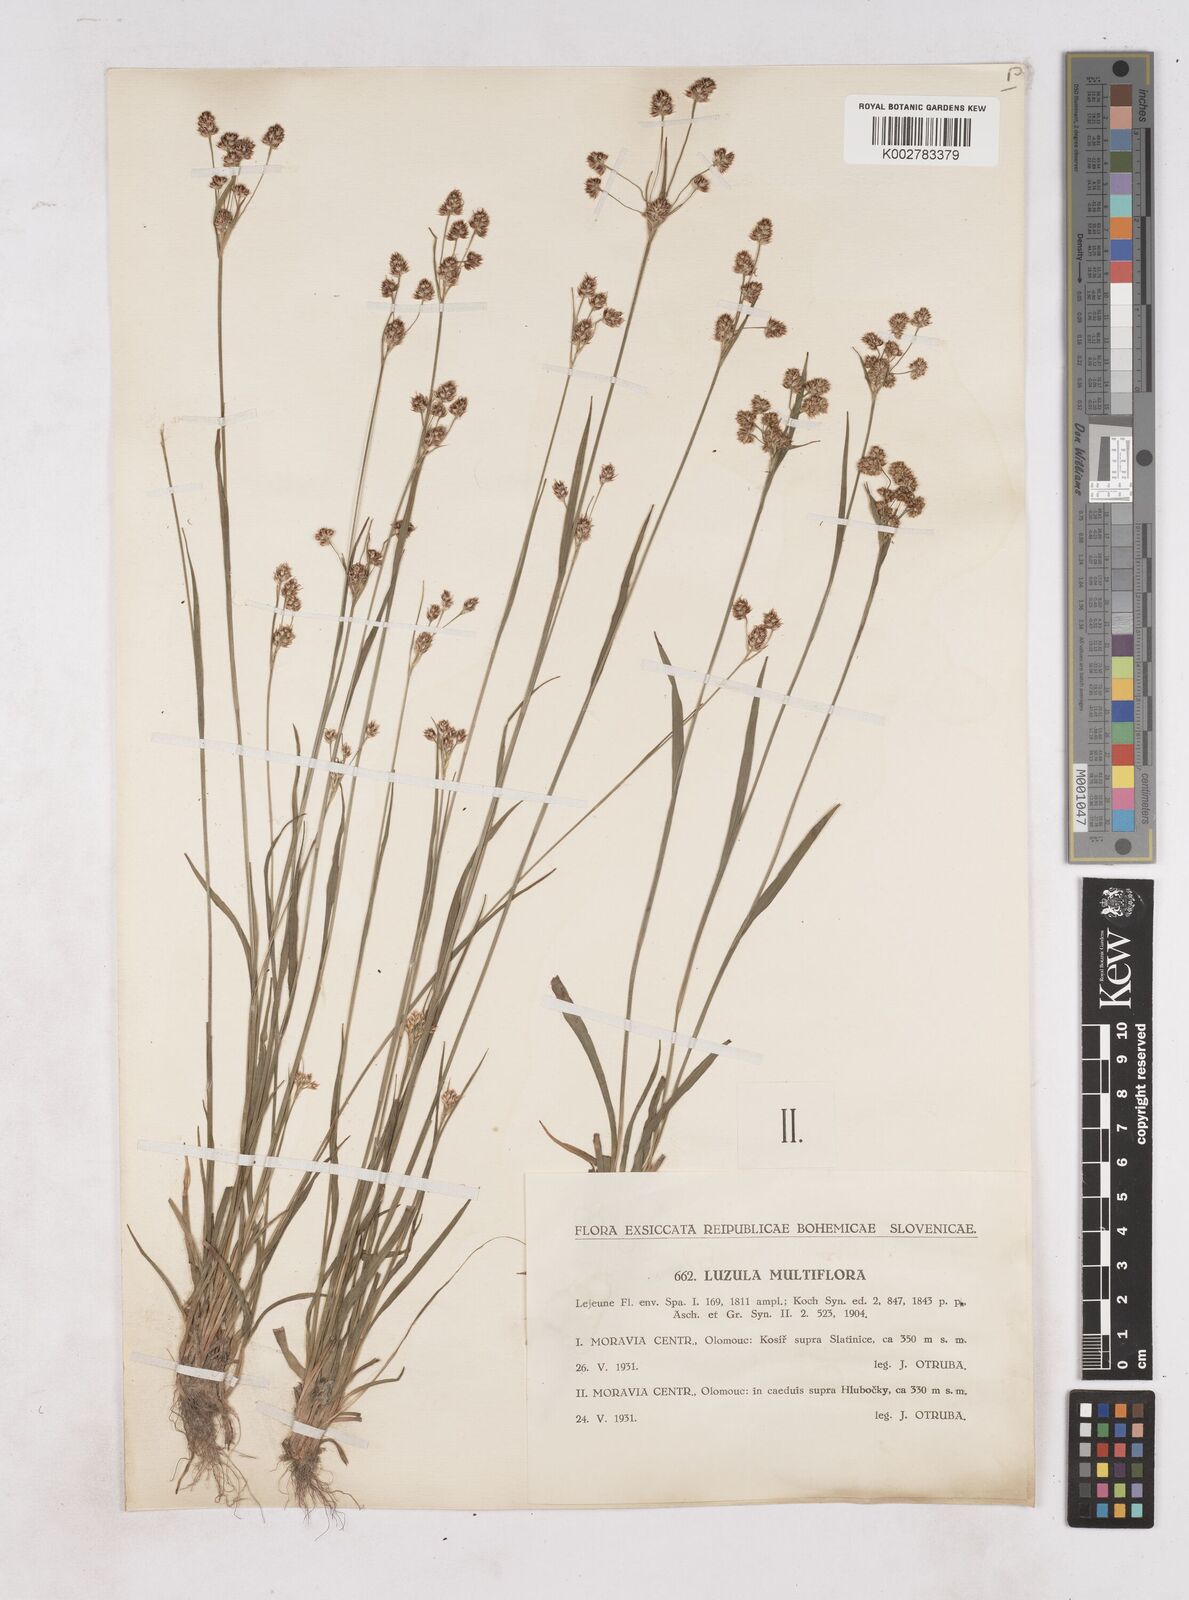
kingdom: Plantae
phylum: Tracheophyta
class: Liliopsida
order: Poales
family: Juncaceae
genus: Luzula
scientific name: Luzula multiflora
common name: Heath wood-rush
